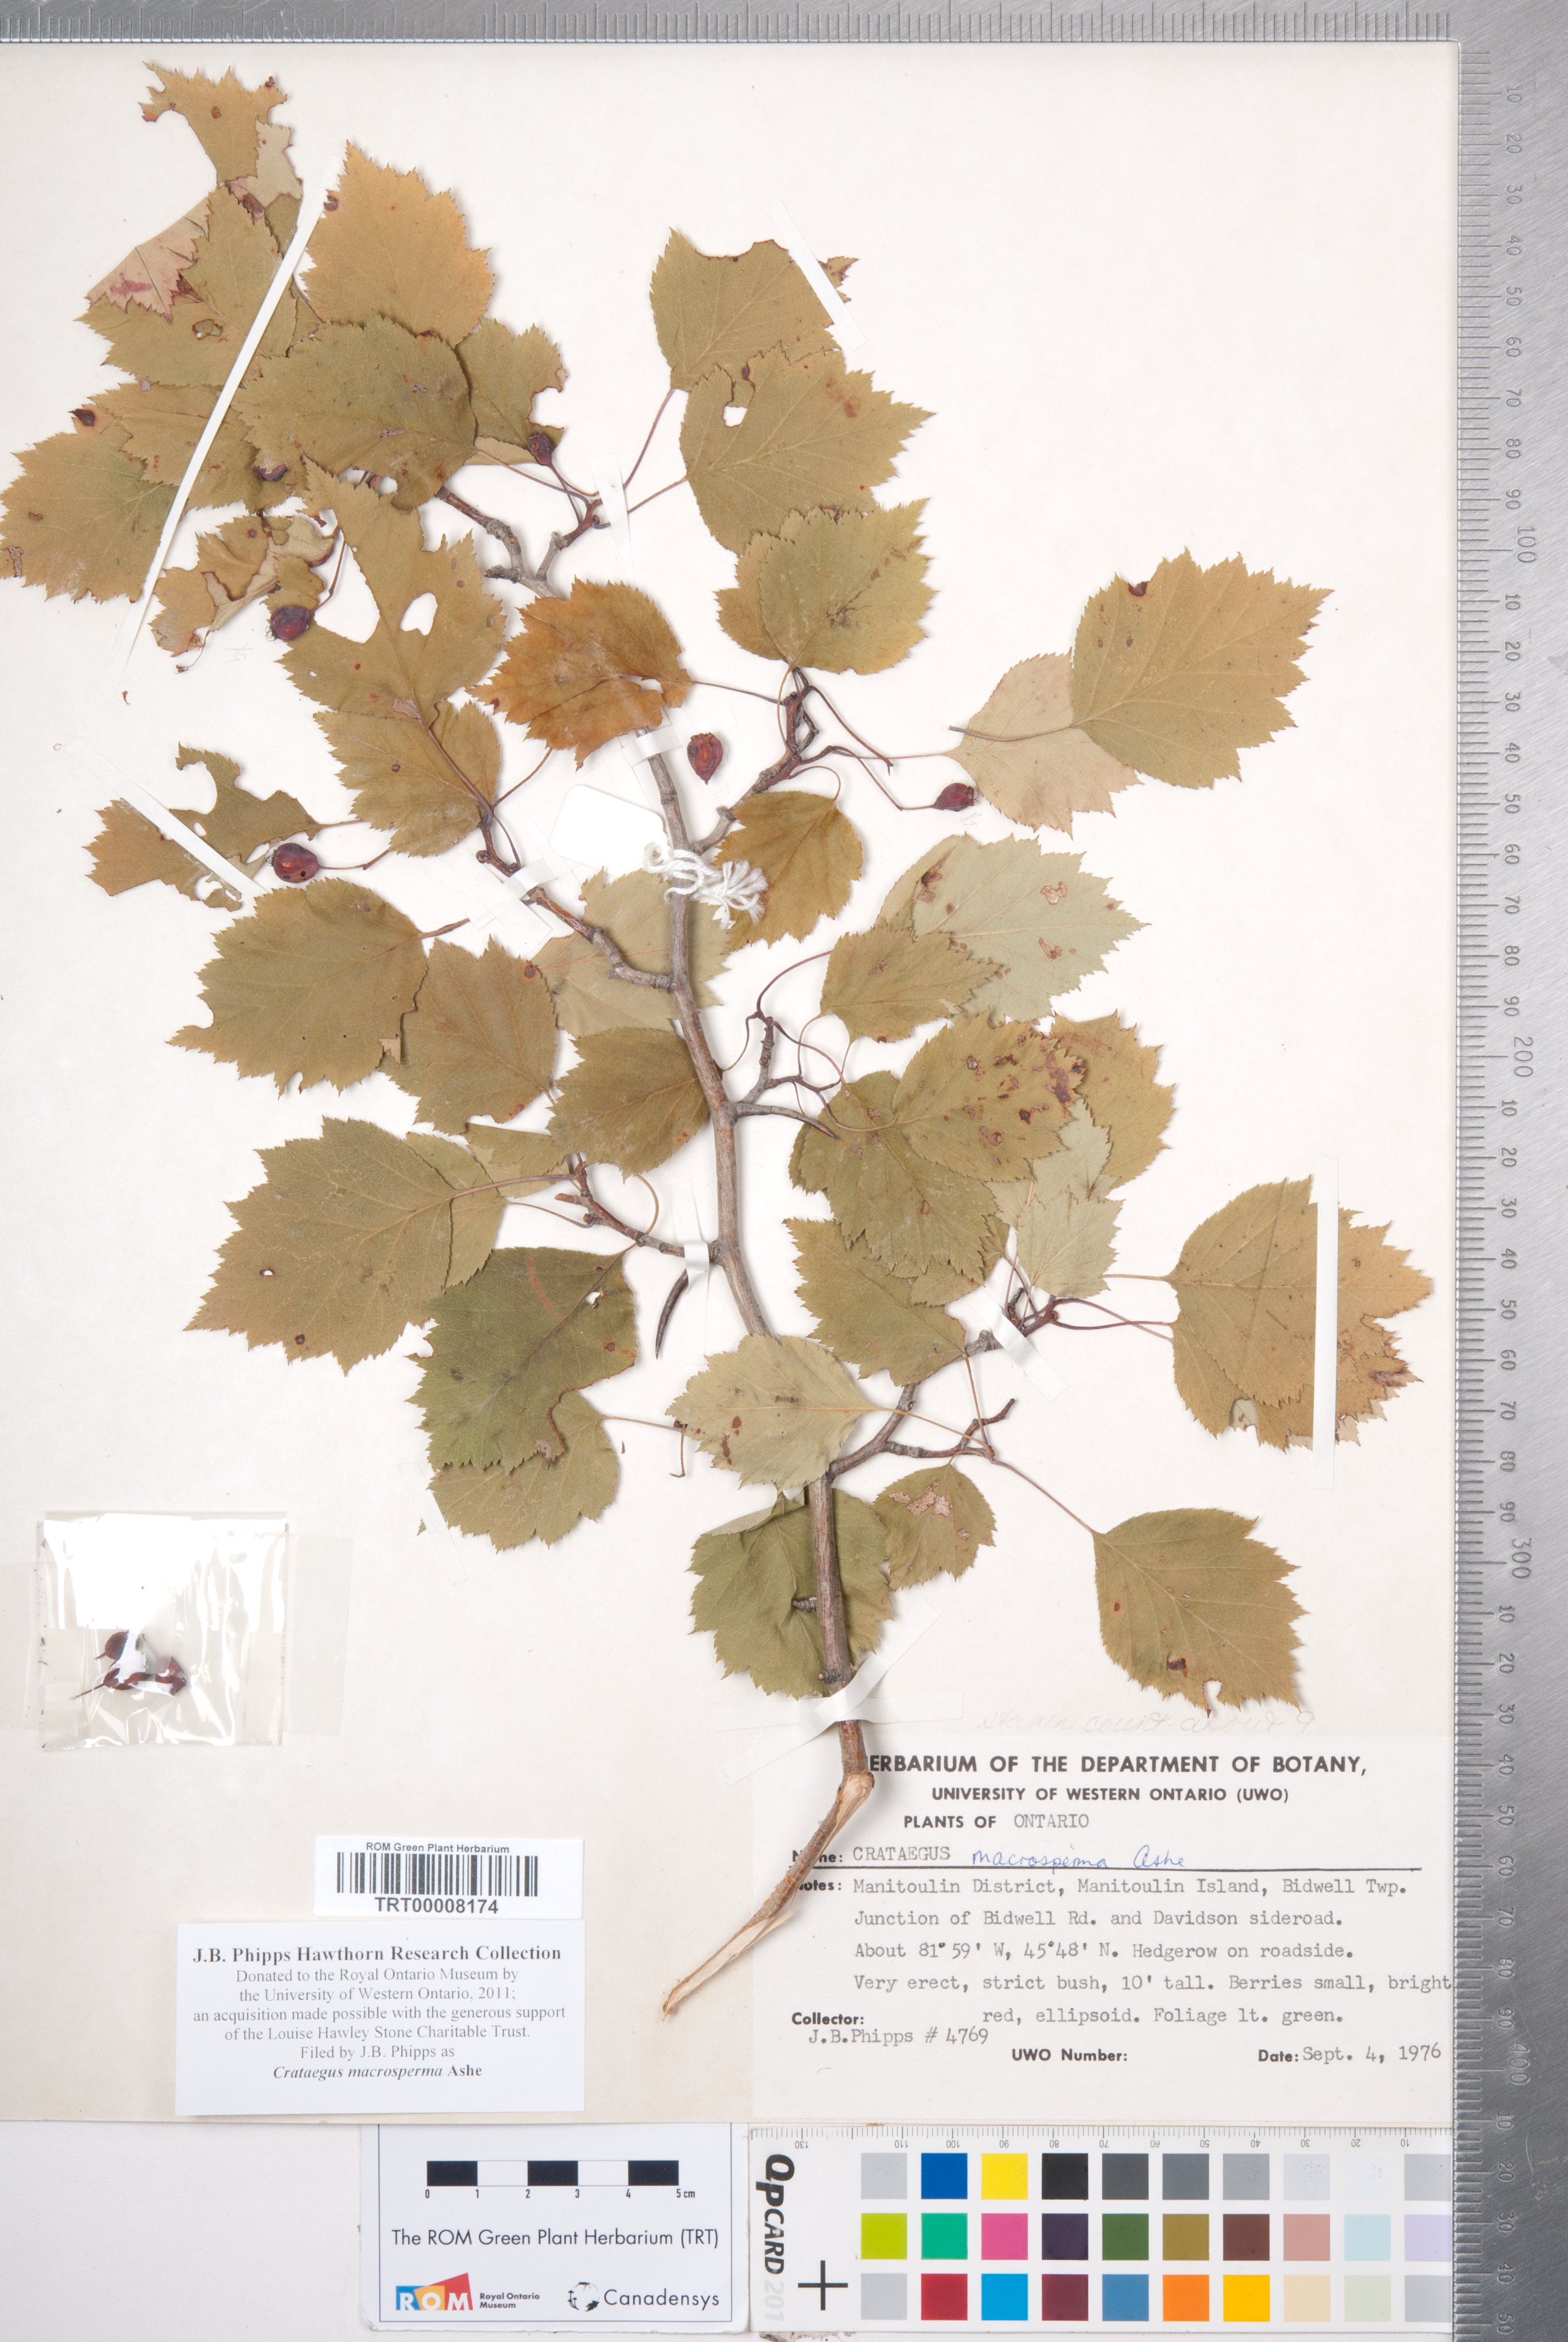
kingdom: Plantae
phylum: Tracheophyta
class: Magnoliopsida
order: Rosales
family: Rosaceae
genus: Crataegus
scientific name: Crataegus macrosperma
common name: Variable hawthorn
